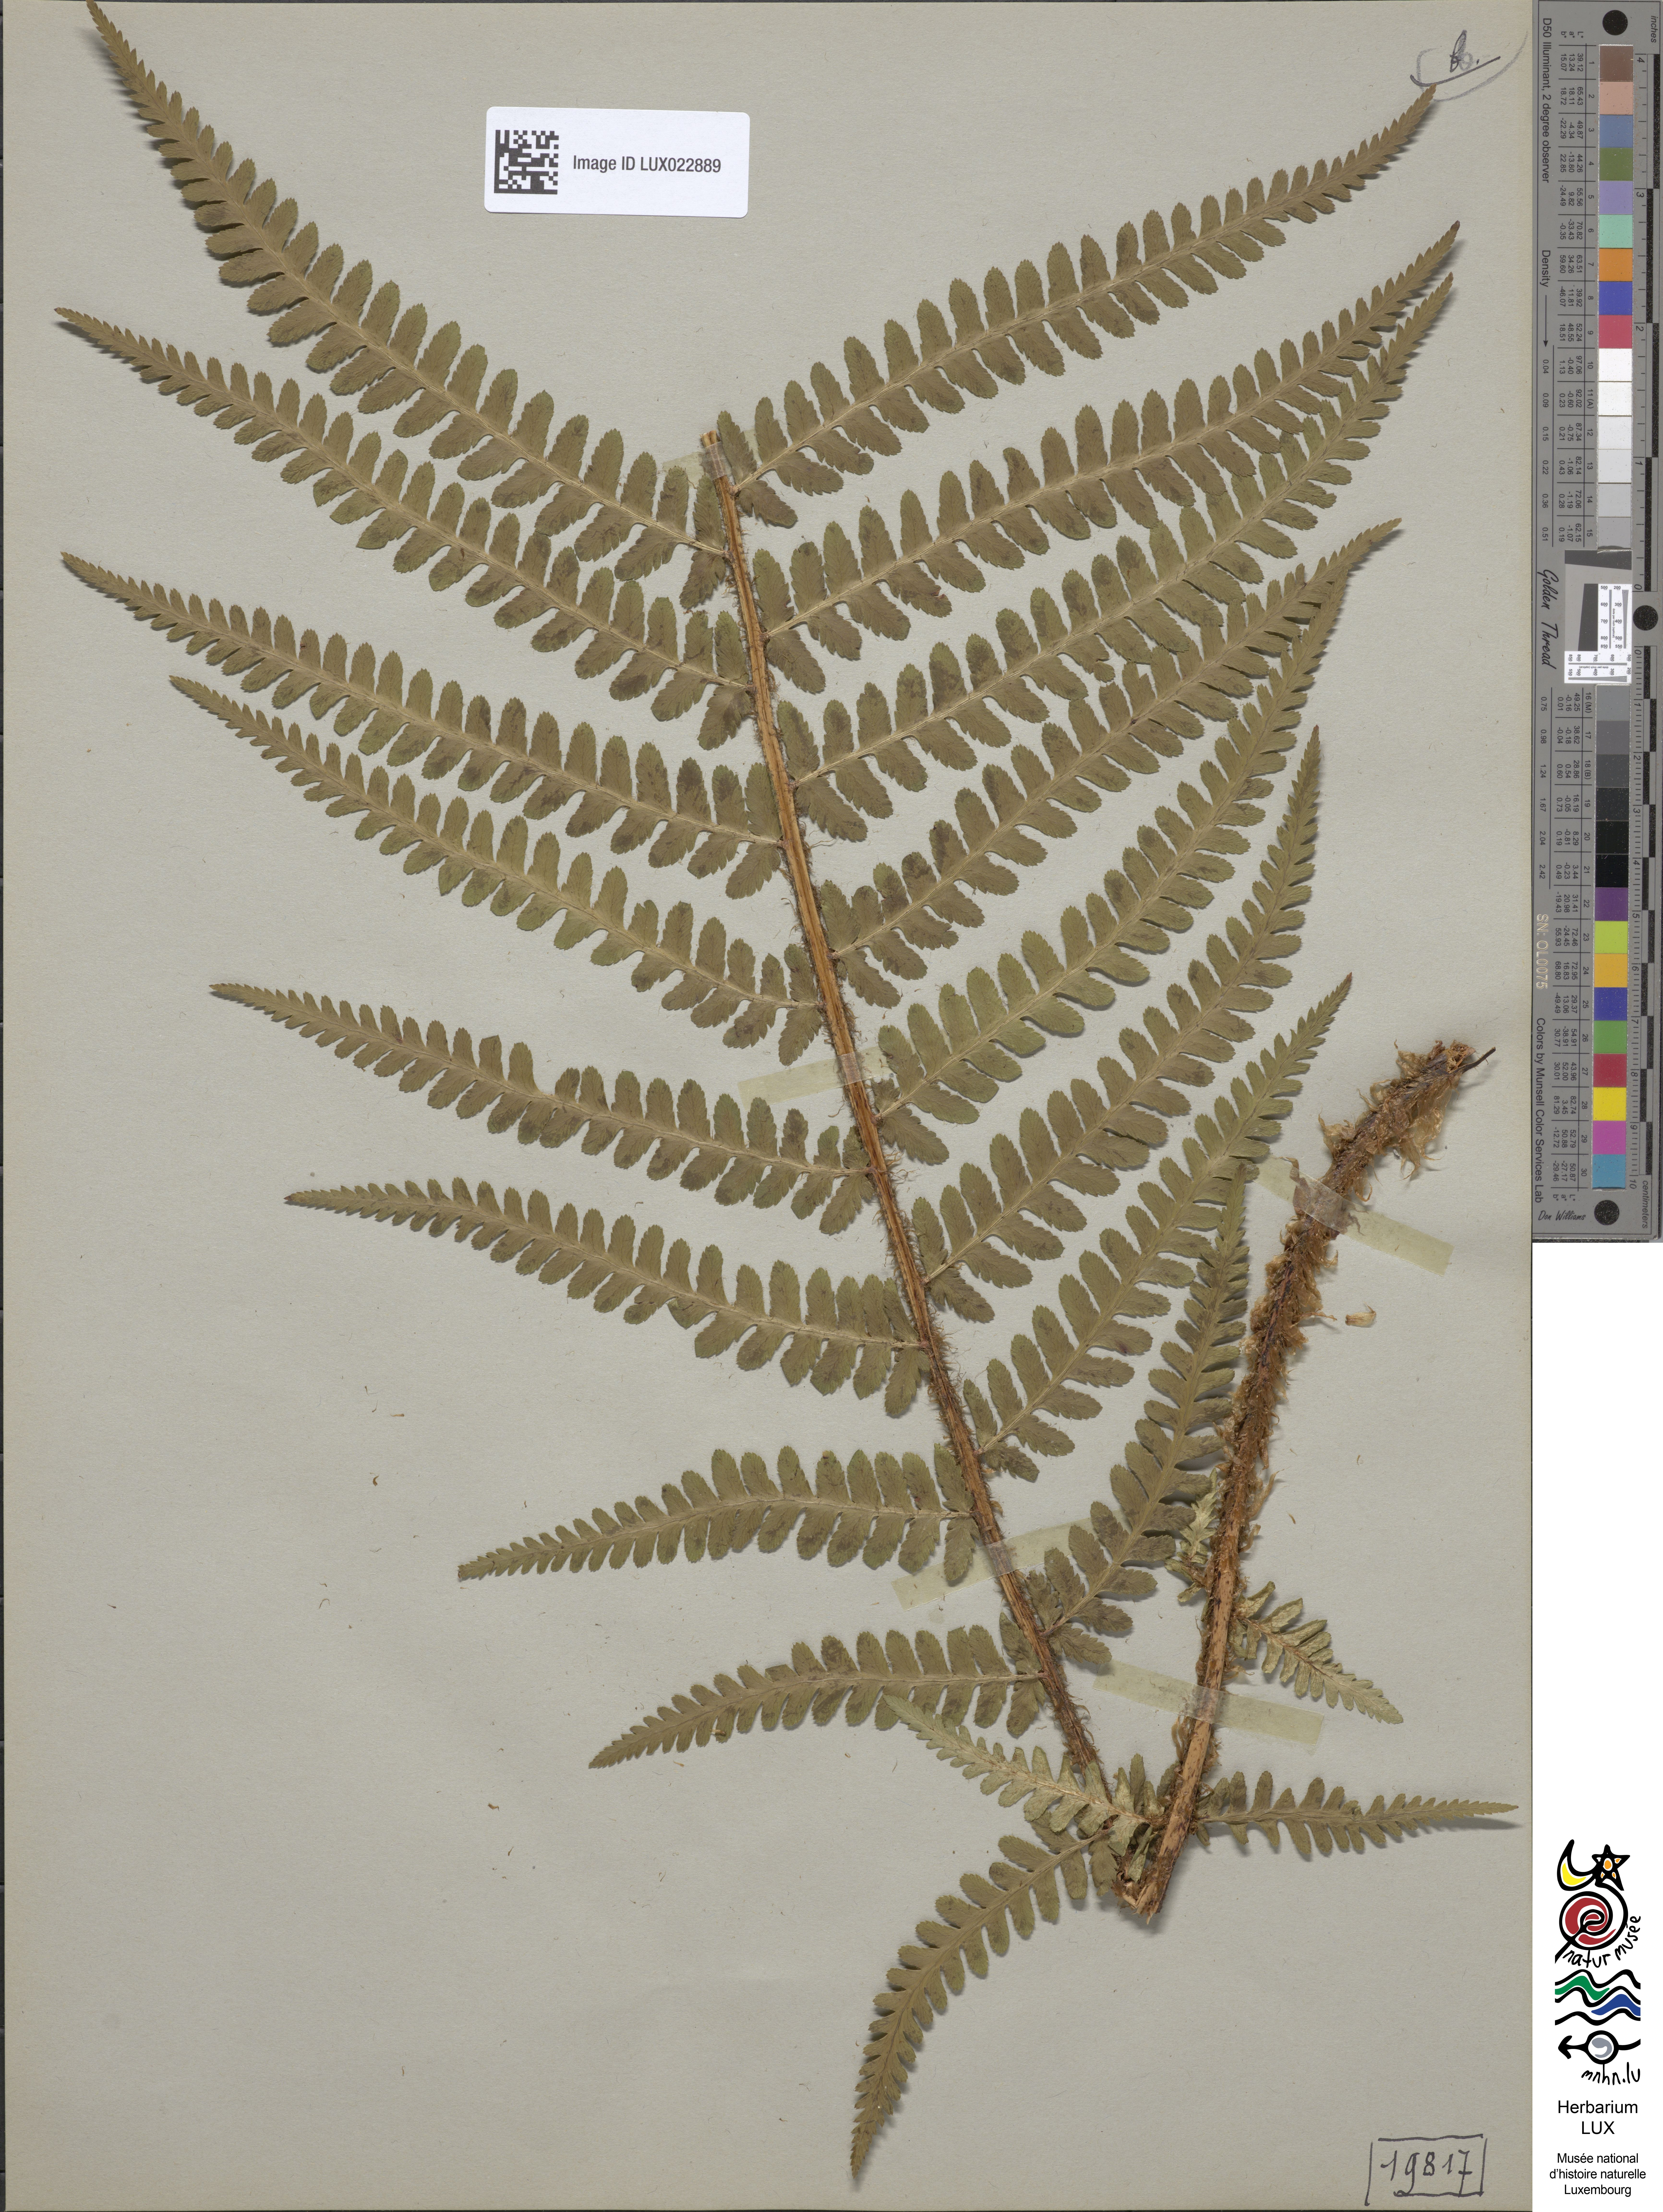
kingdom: Plantae
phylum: Tracheophyta
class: Polypodiopsida
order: Polypodiales
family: Dryopteridaceae
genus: Dryopteris
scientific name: Dryopteris filix-mas
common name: Male fern
